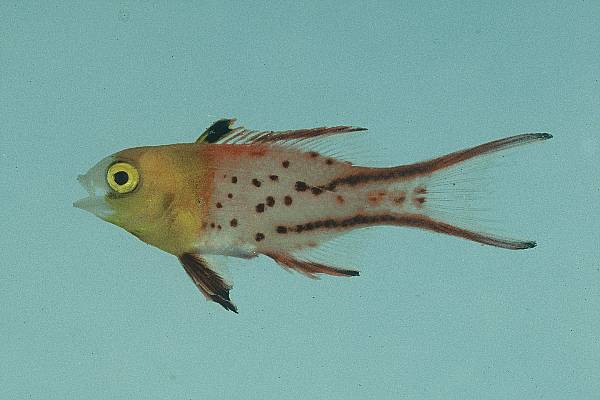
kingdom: Animalia
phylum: Chordata
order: Perciformes
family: Labridae
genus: Bodianus
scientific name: Bodianus anthioides
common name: Lyretail hogfish
